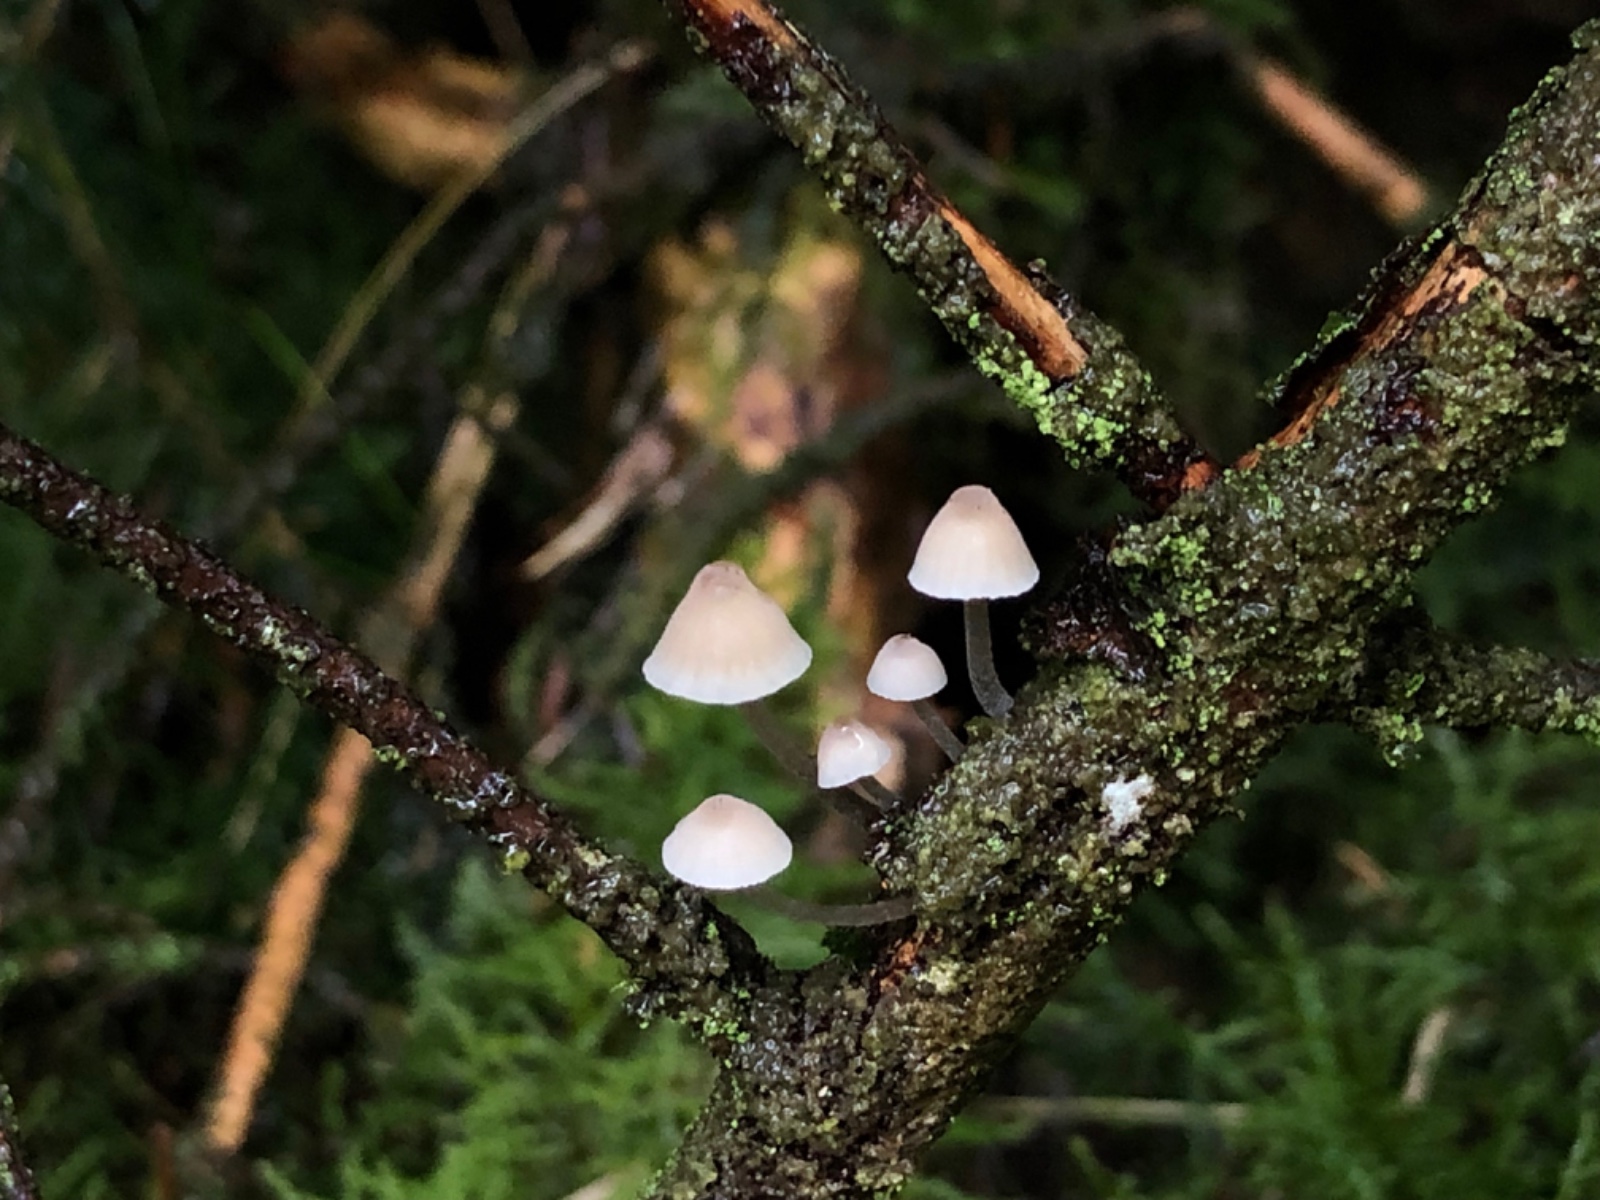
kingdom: Fungi
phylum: Basidiomycota
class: Agaricomycetes
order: Agaricales
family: Mycenaceae
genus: Mycena
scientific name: Mycena metata
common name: rødlig huesvamp
